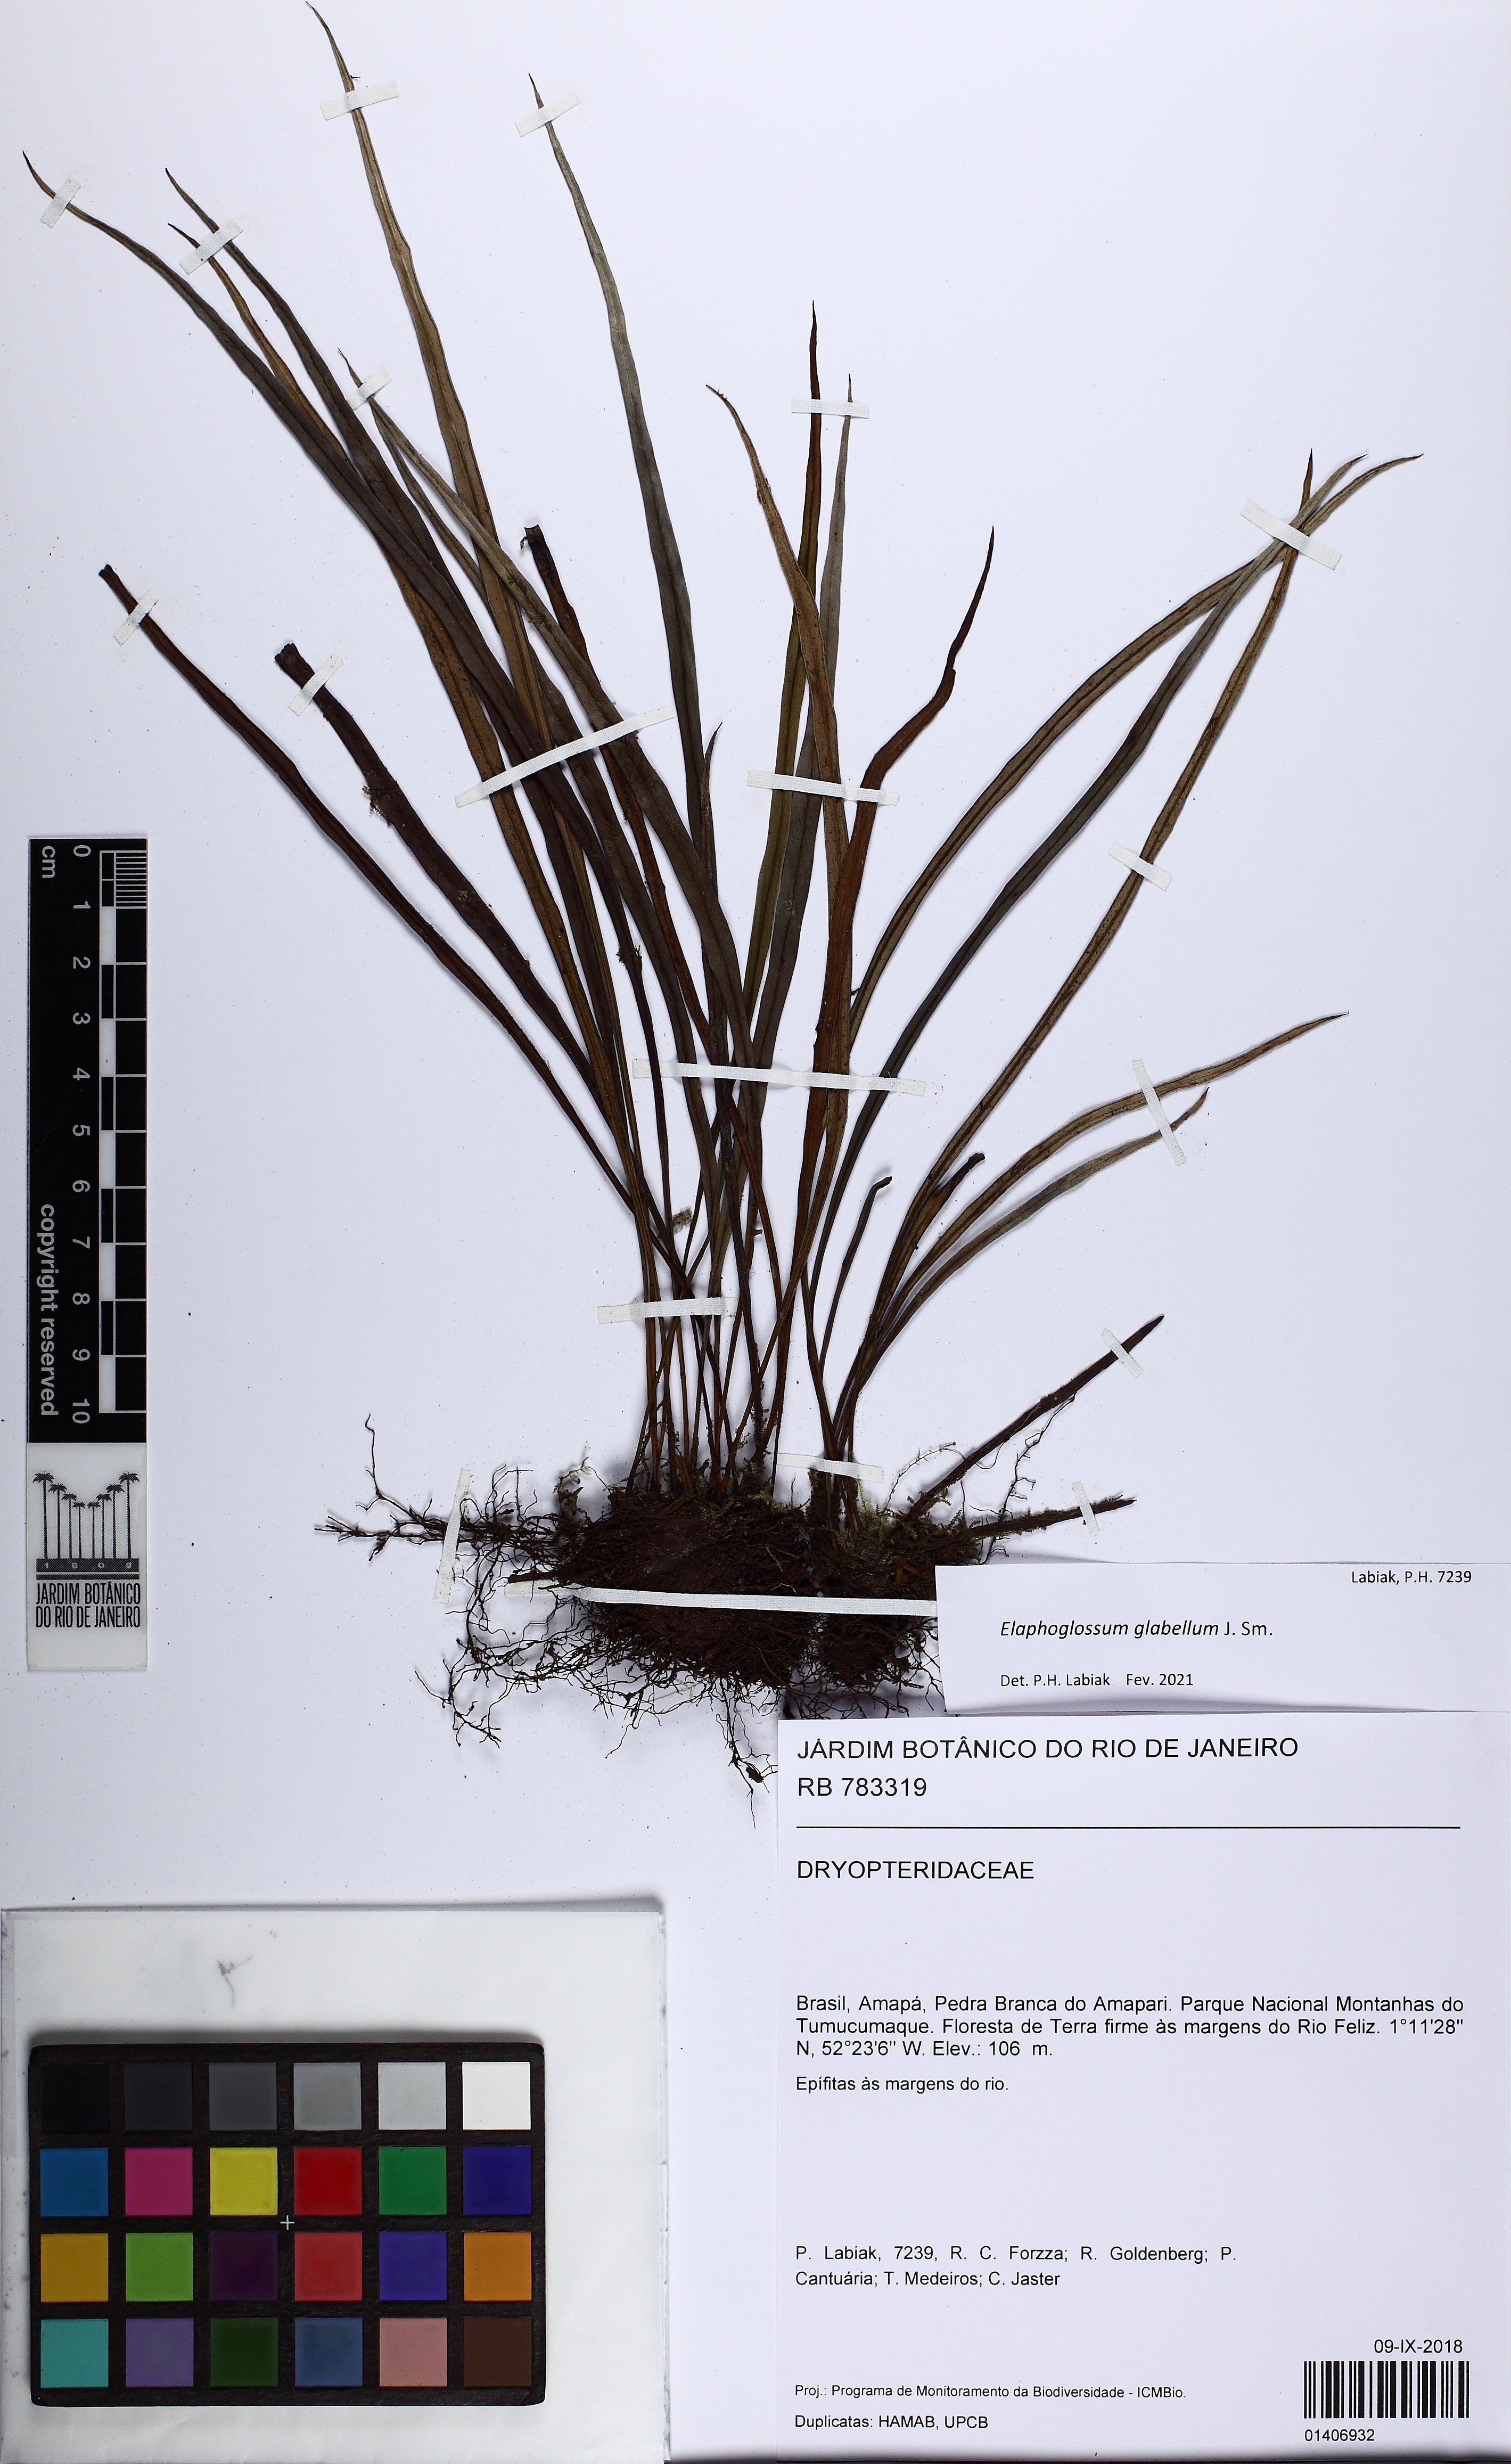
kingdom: Plantae
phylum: Tracheophyta
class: Polypodiopsida
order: Polypodiales
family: Dryopteridaceae
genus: Elaphoglossum
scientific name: Elaphoglossum glabellum
